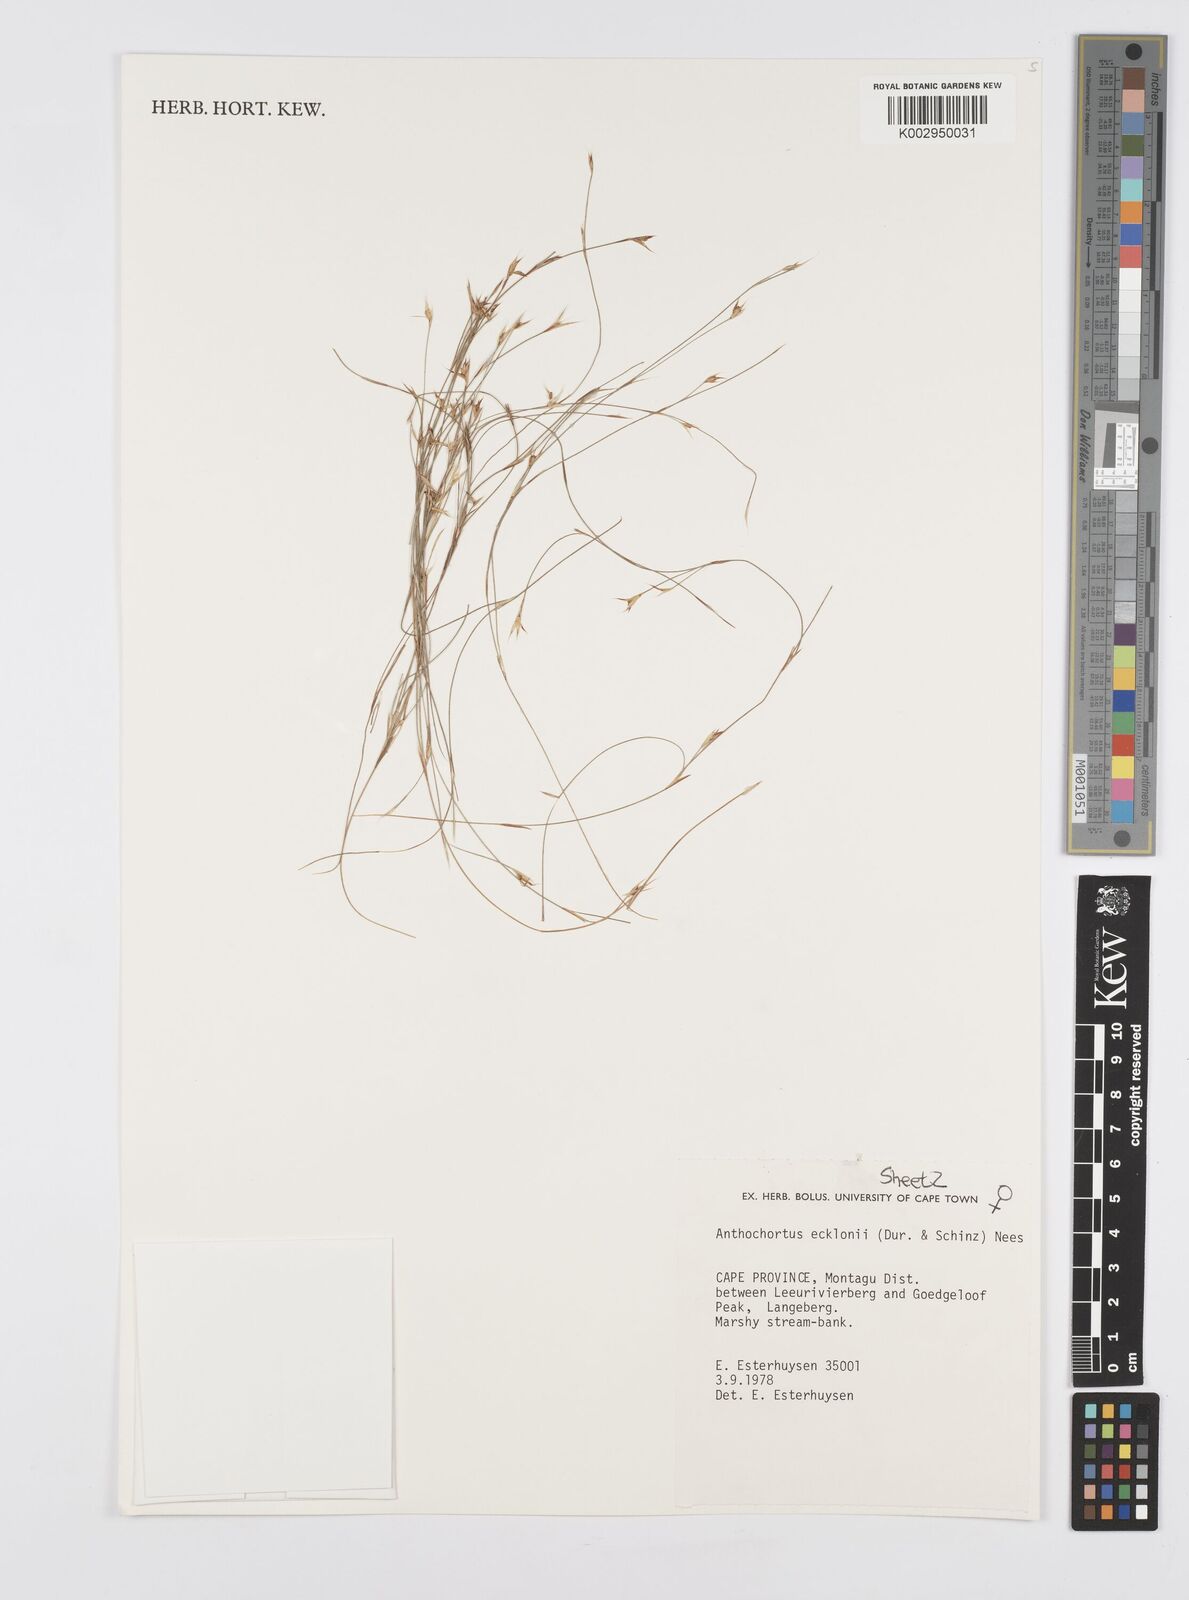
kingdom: Plantae
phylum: Tracheophyta
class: Liliopsida
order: Poales
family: Restionaceae
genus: Anthochortus
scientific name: Anthochortus ecklonii
